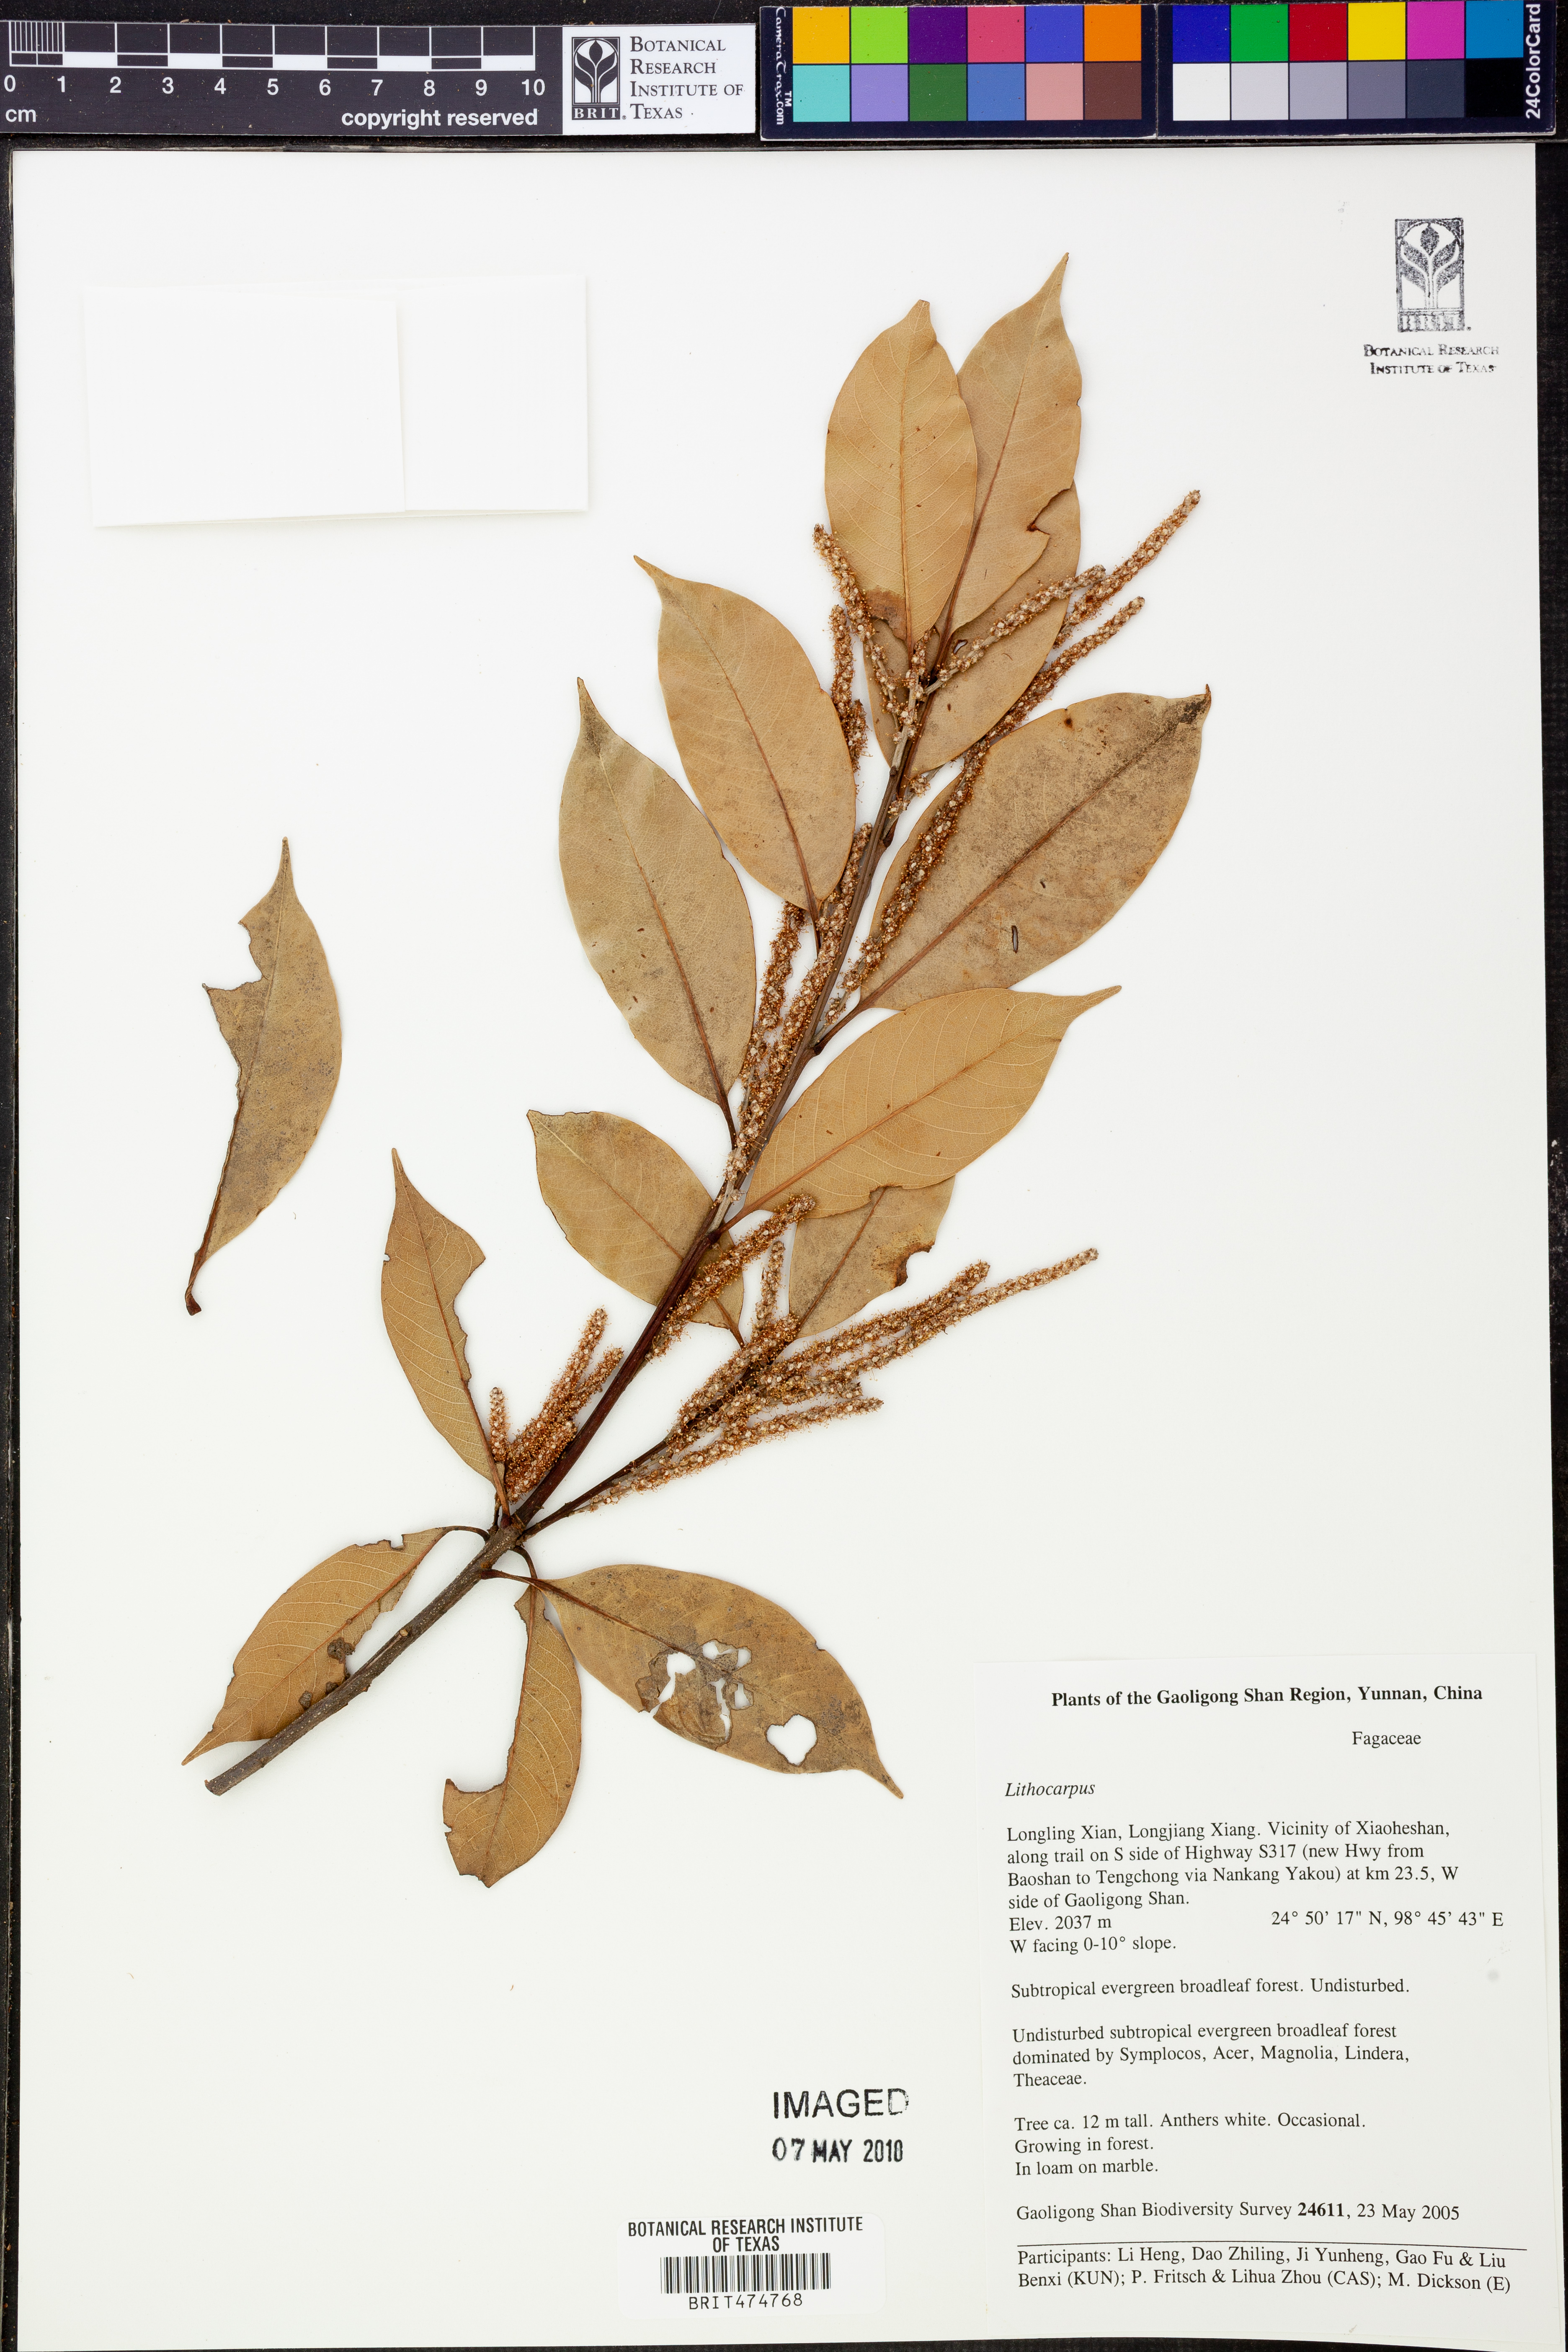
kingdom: Plantae
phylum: Tracheophyta
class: Magnoliopsida
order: Fagales
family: Fagaceae
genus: Lithocarpus
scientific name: Lithocarpus
